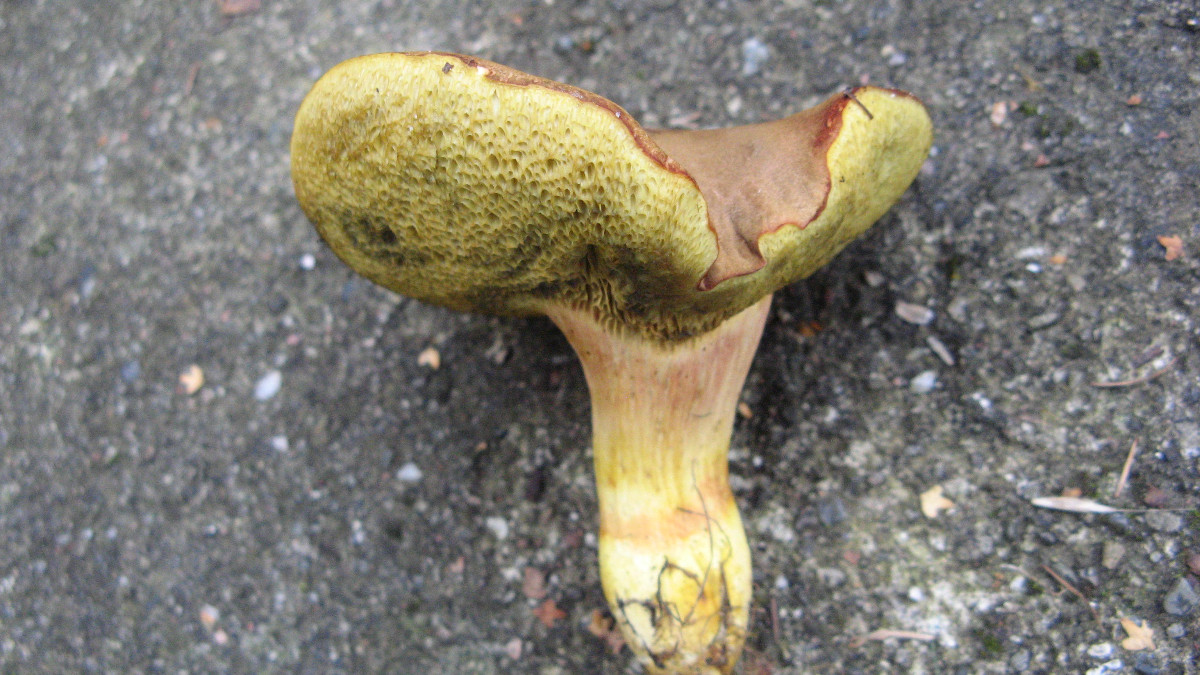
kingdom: Fungi
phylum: Basidiomycota
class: Agaricomycetes
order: Boletales
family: Boletaceae
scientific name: Boletaceae
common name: rørhatfamilien
